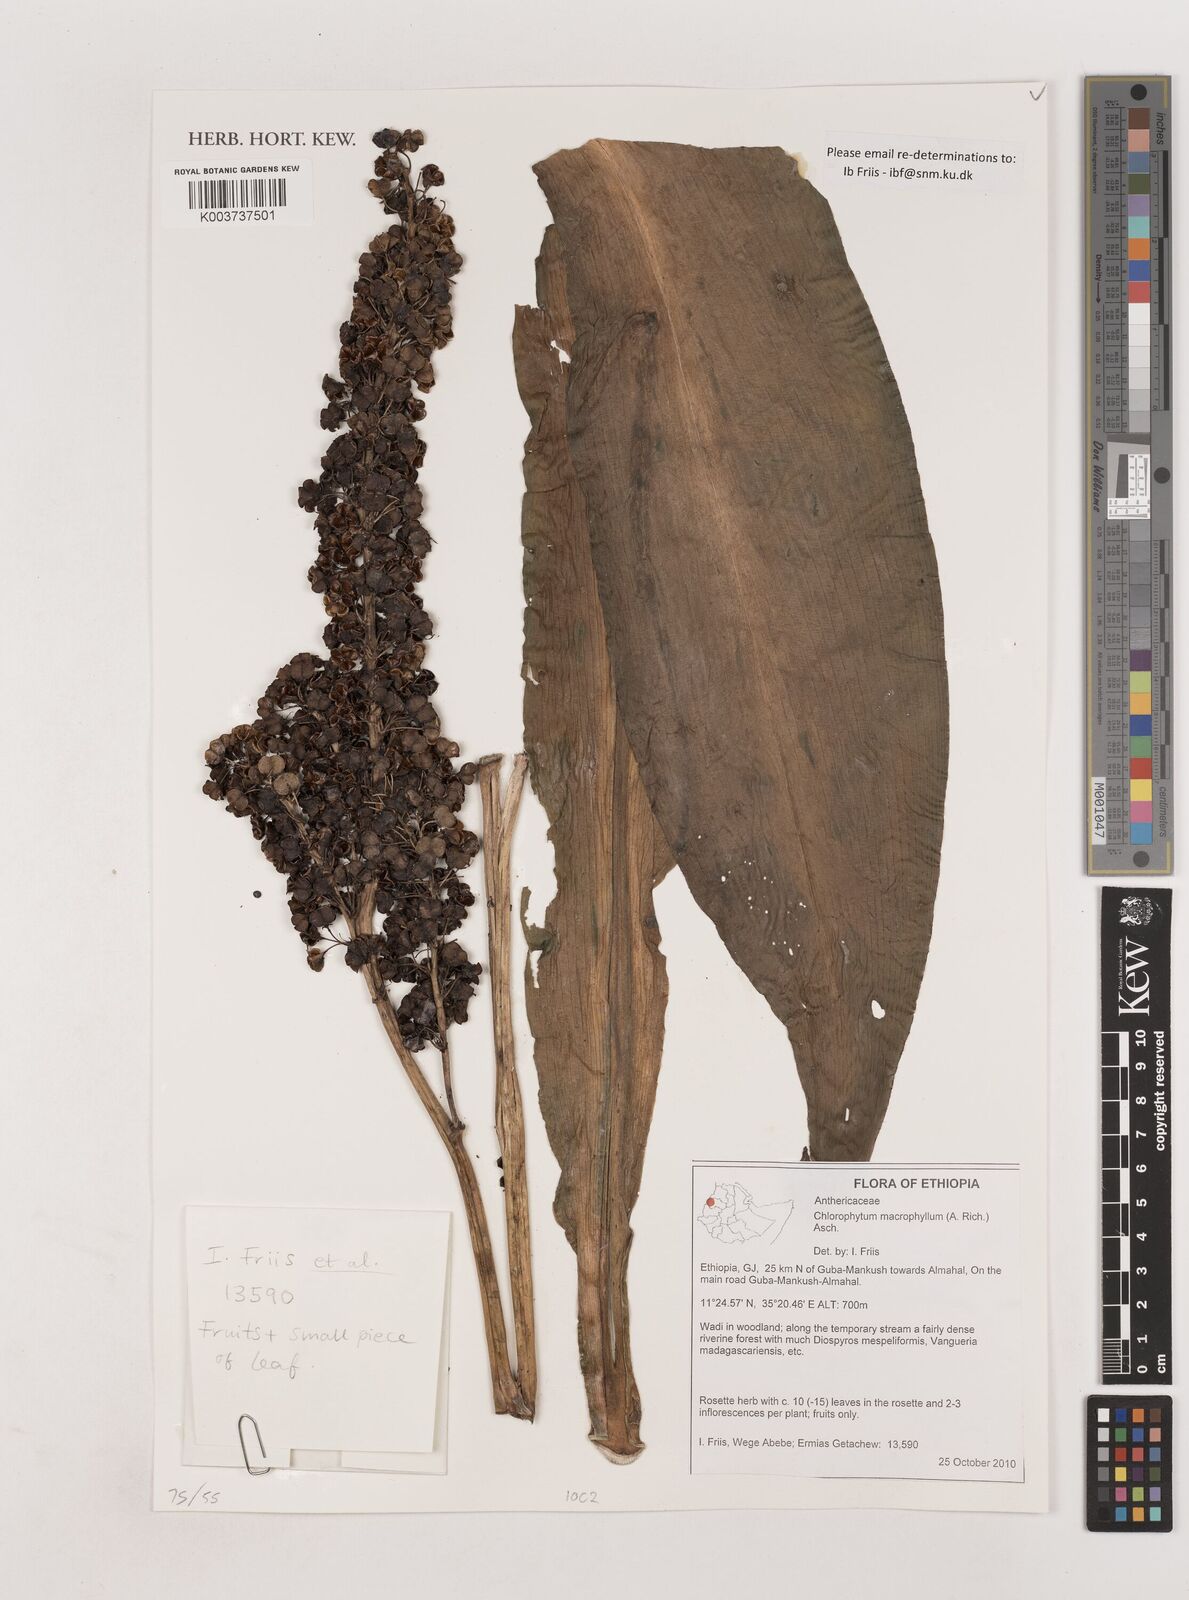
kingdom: Plantae
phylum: Tracheophyta
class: Liliopsida
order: Asparagales
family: Asparagaceae
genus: Chlorophytum
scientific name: Chlorophytum macrophyllum
